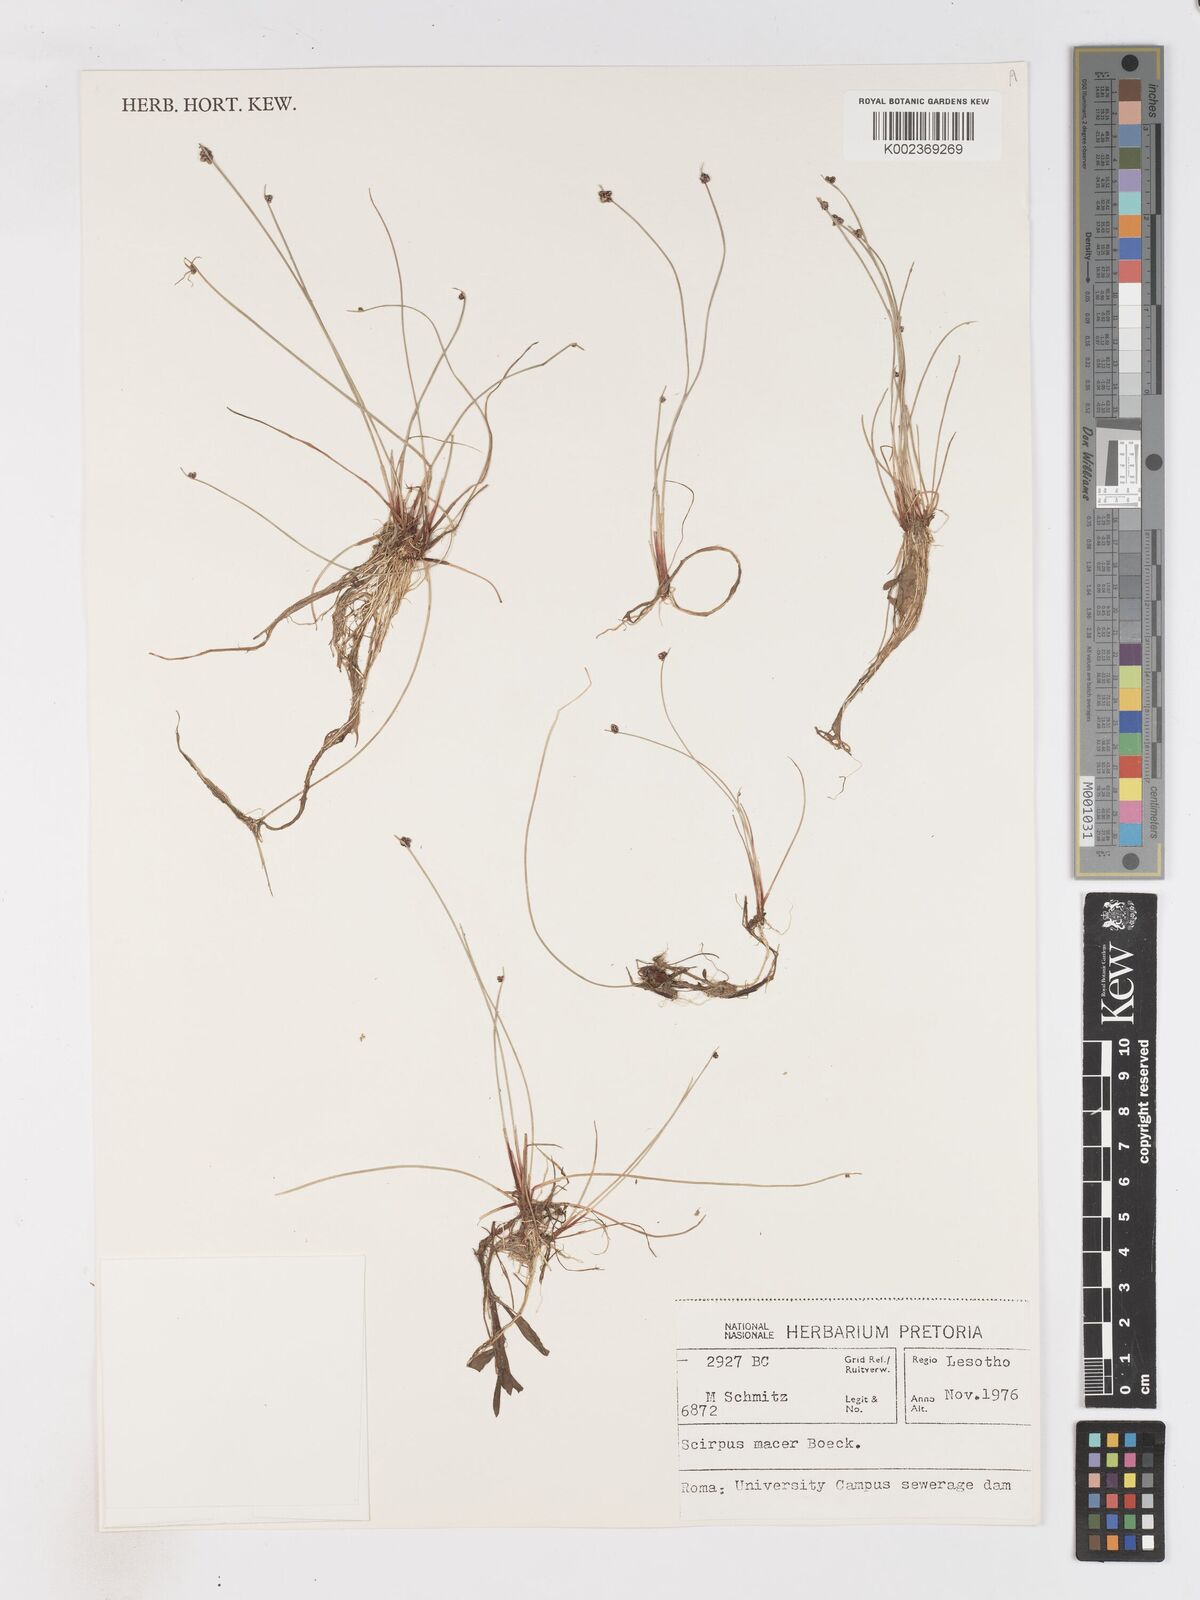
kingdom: Plantae
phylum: Tracheophyta
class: Liliopsida
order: Poales
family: Cyperaceae
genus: Isolepis
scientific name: Isolepis costata
